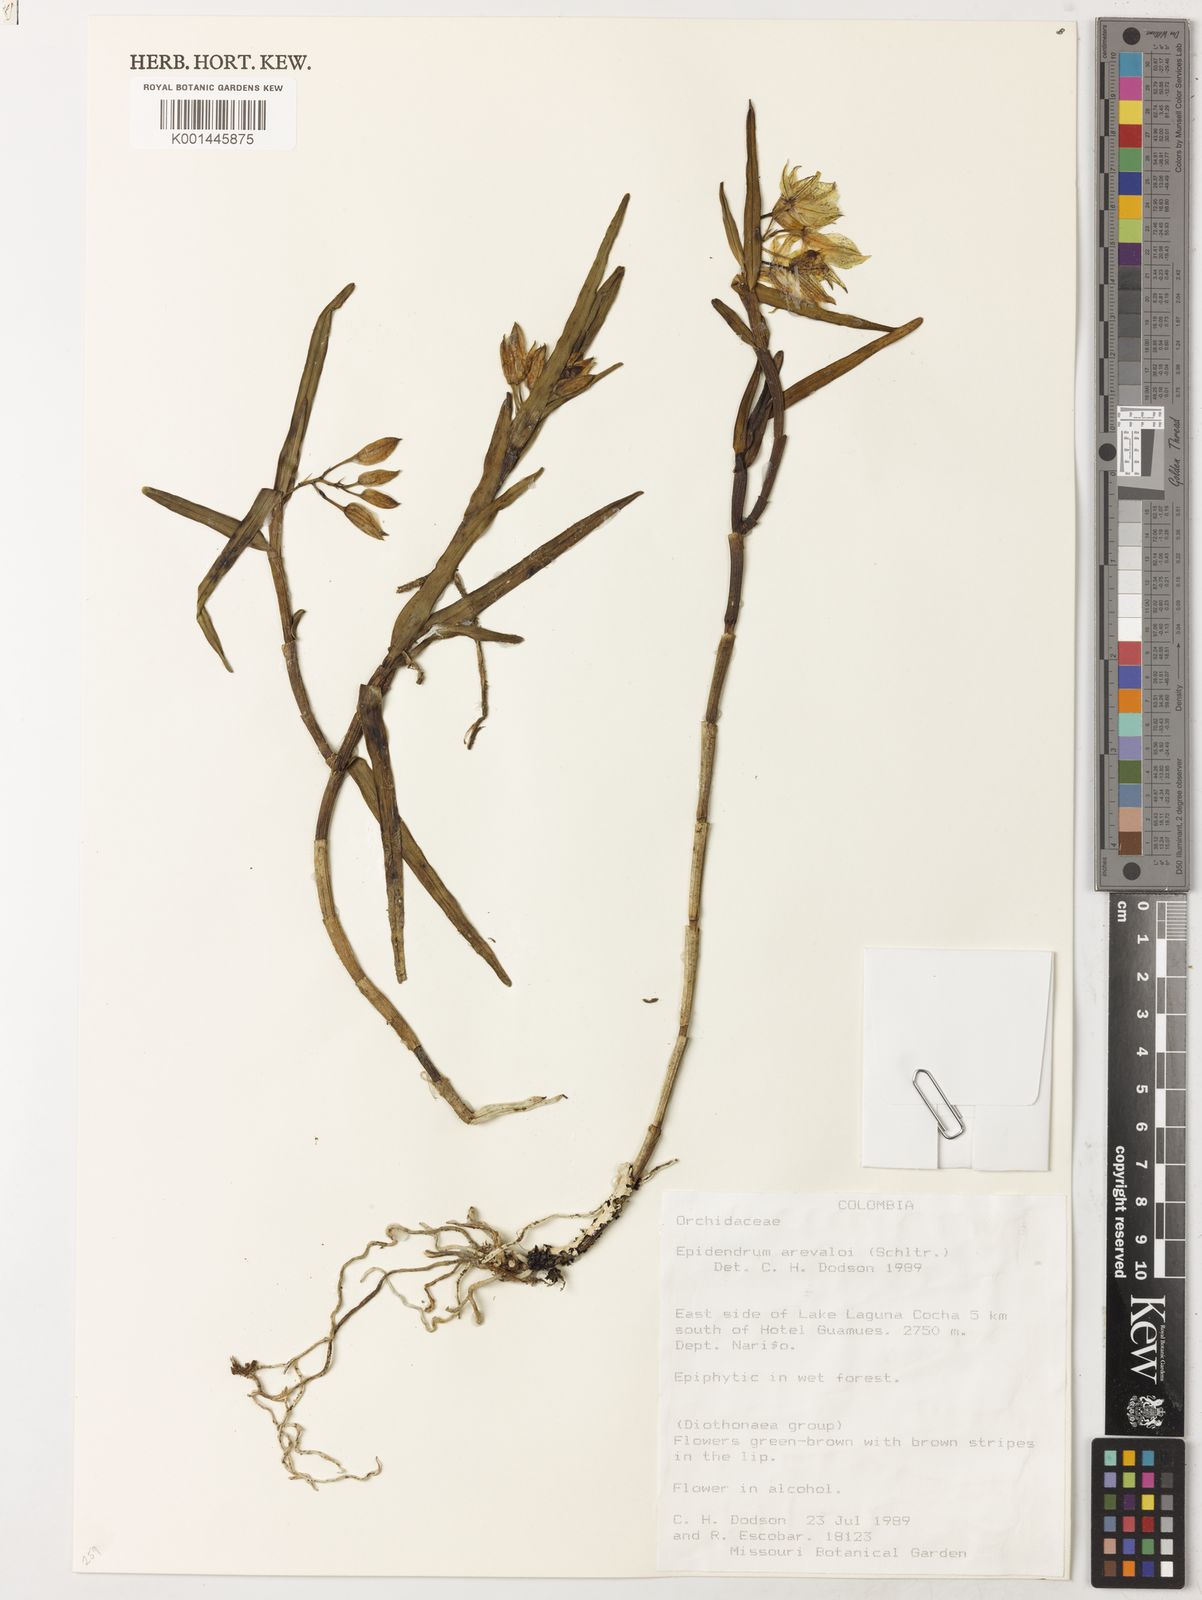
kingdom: Plantae
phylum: Tracheophyta
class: Liliopsida
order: Asparagales
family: Orchidaceae
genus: Epidendrum
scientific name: Epidendrum
